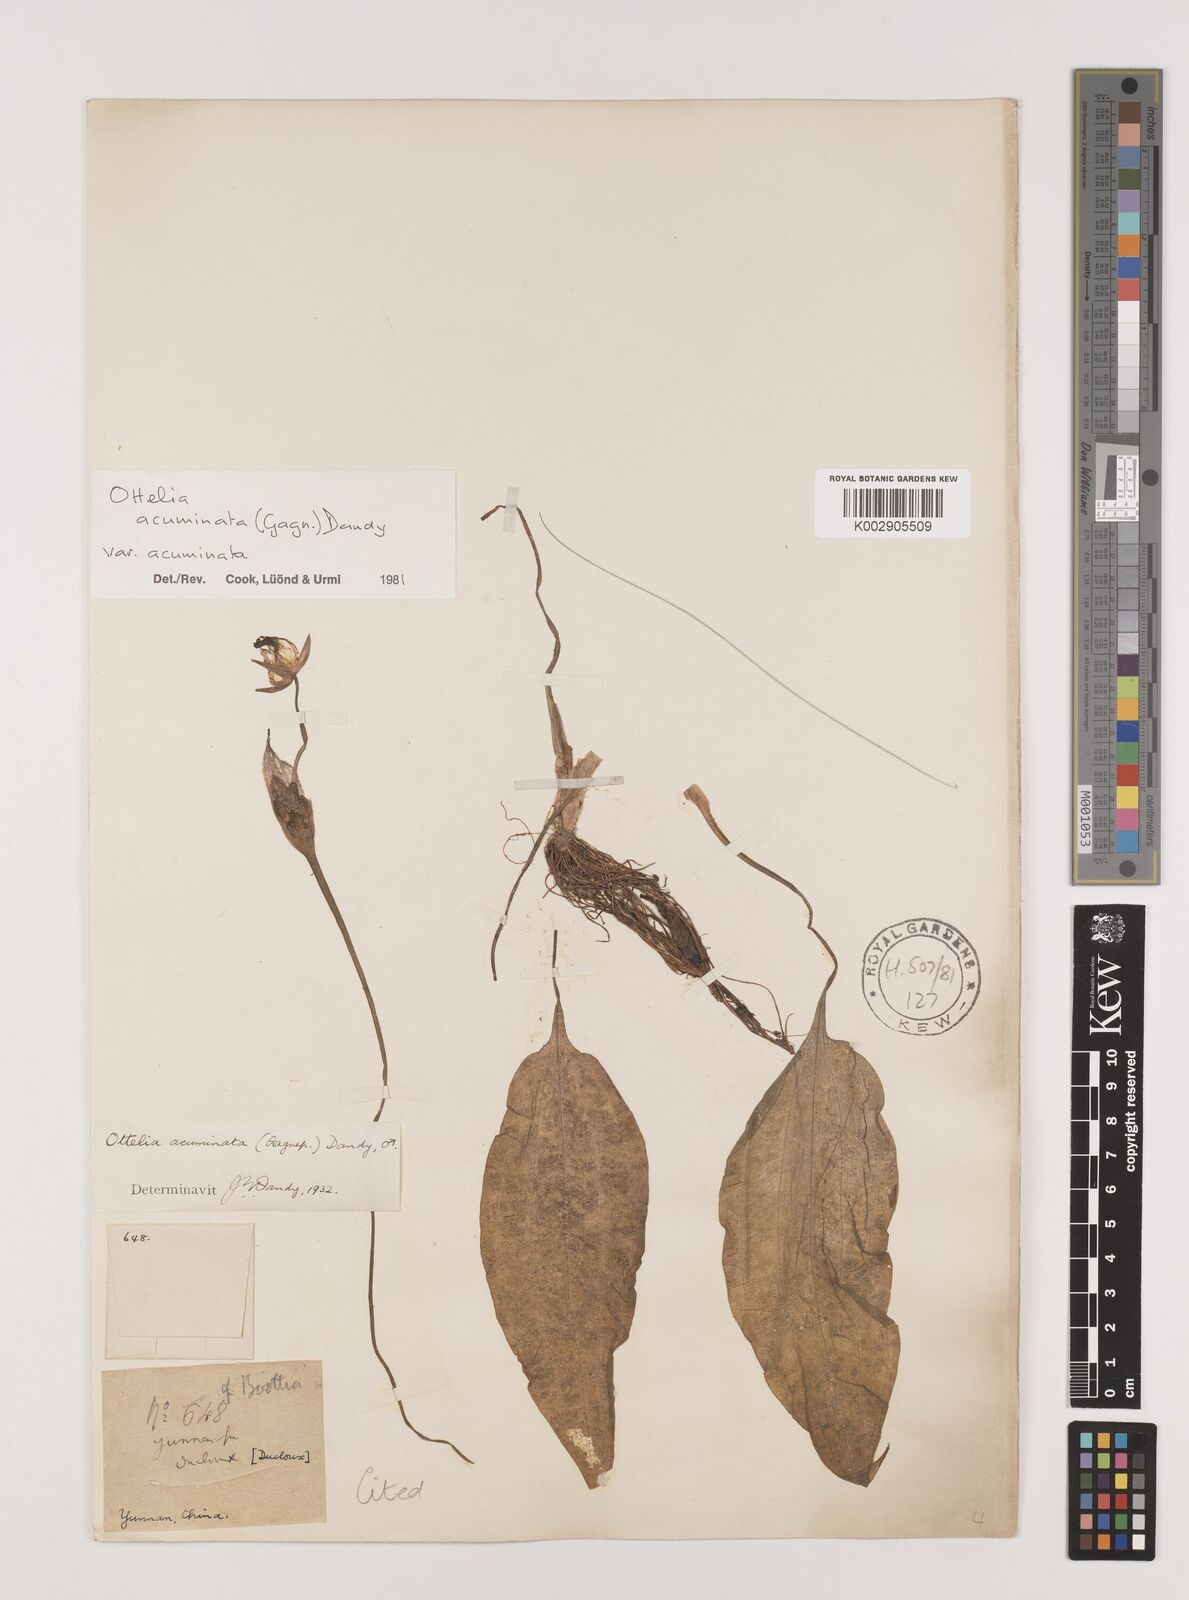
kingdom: Plantae
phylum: Tracheophyta
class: Liliopsida
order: Alismatales
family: Hydrocharitaceae
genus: Ottelia
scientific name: Ottelia acuminata
